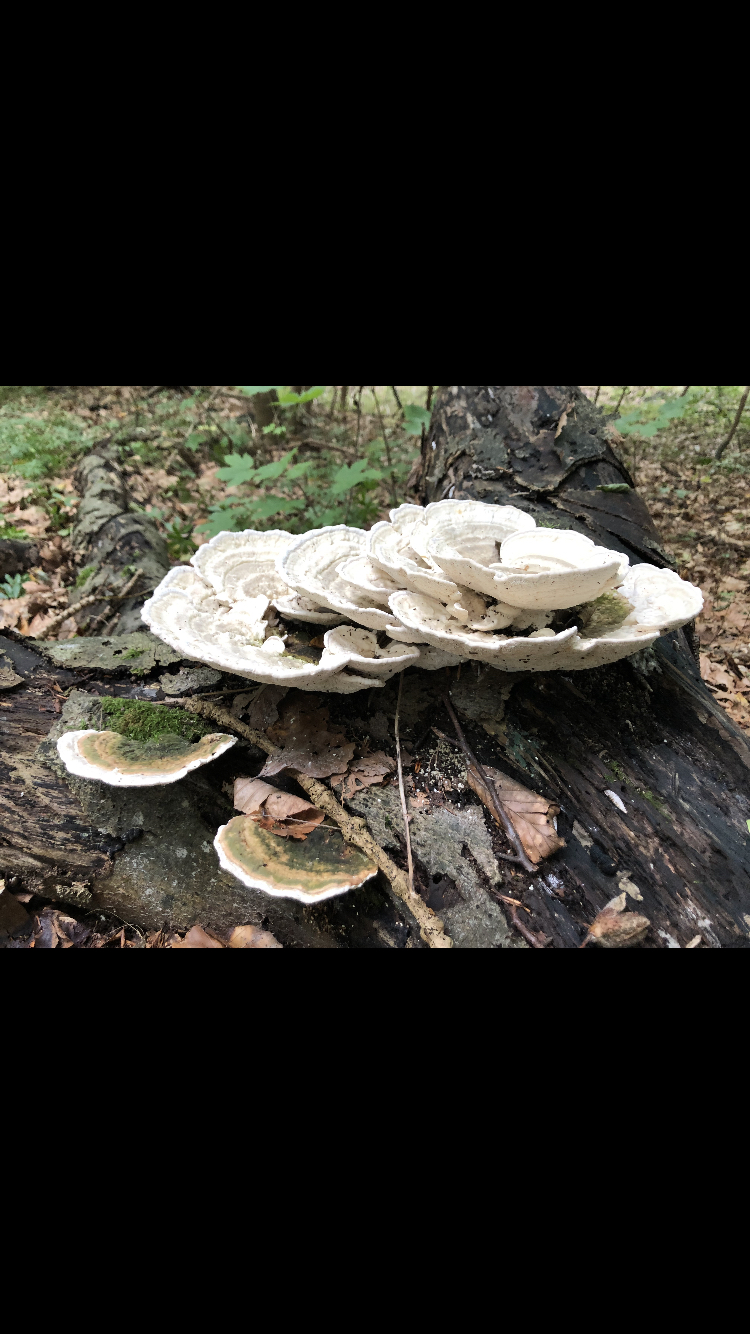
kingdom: Fungi
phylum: Basidiomycota
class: Agaricomycetes
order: Polyporales
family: Polyporaceae
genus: Trametes
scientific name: Trametes gibbosa
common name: puklet læderporesvamp
